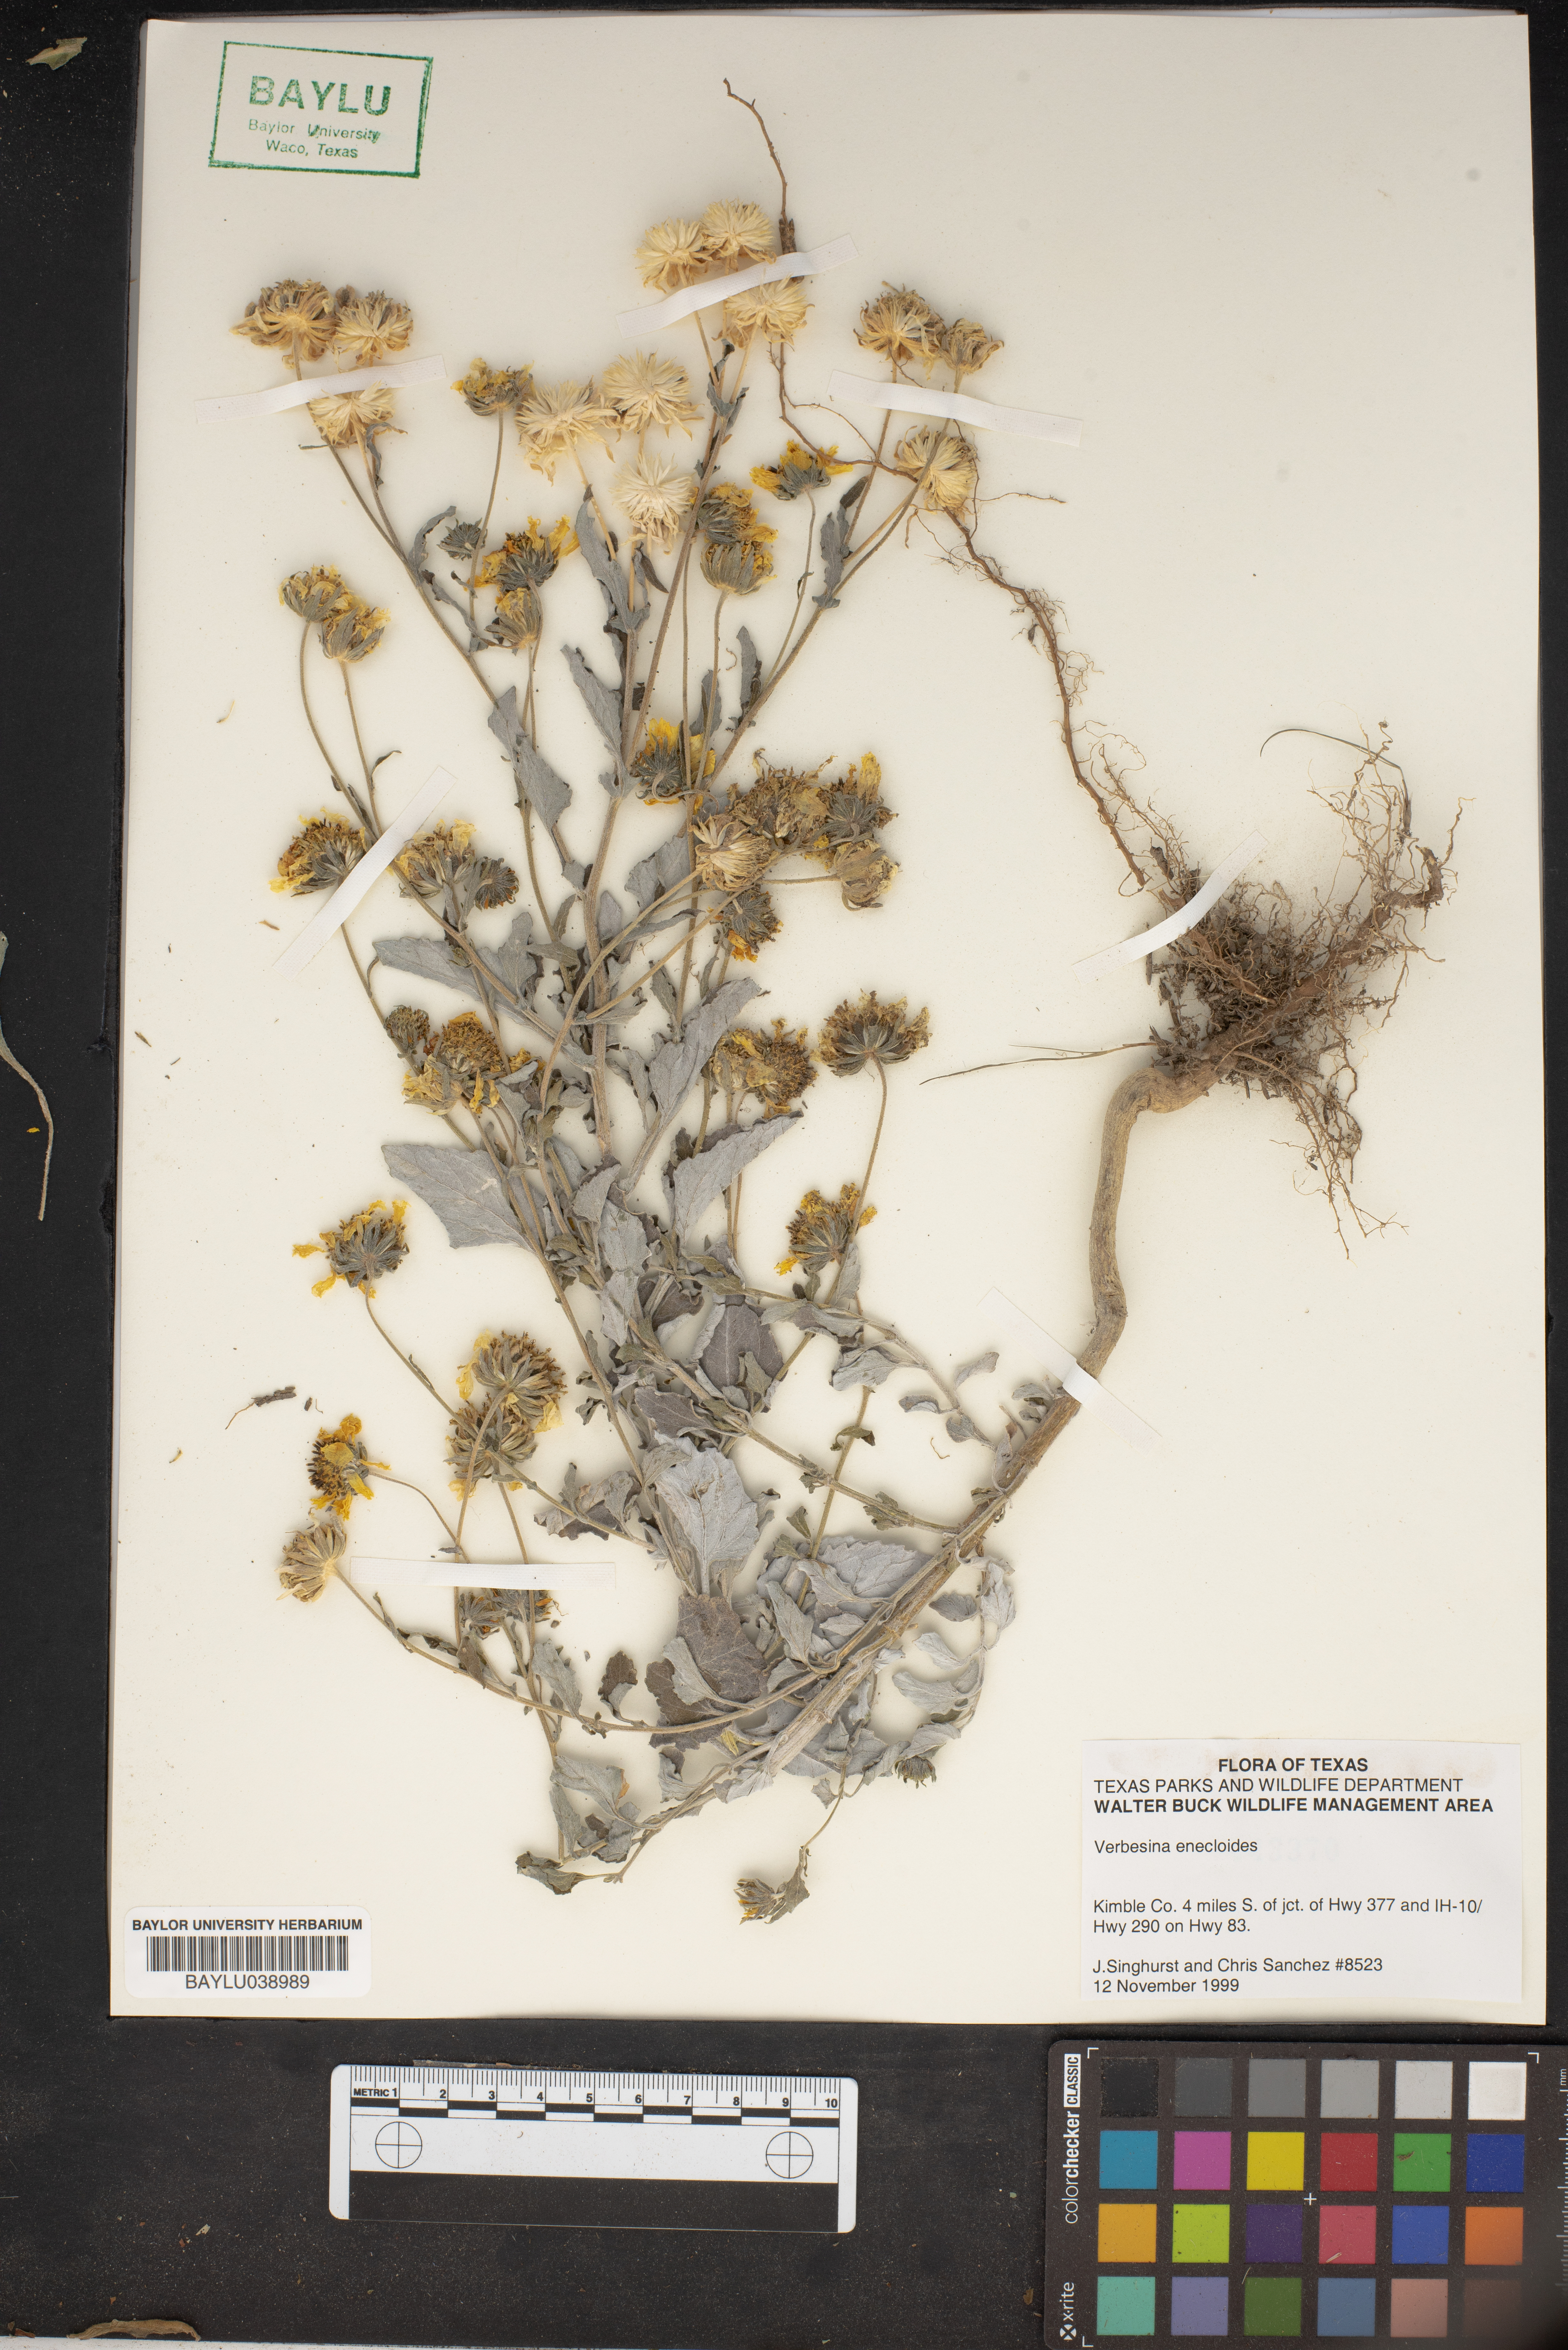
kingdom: Plantae
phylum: Tracheophyta
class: Magnoliopsida
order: Asterales
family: Asteraceae
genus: Verbesina
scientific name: Verbesina encelioides
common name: Golden crownbeard
